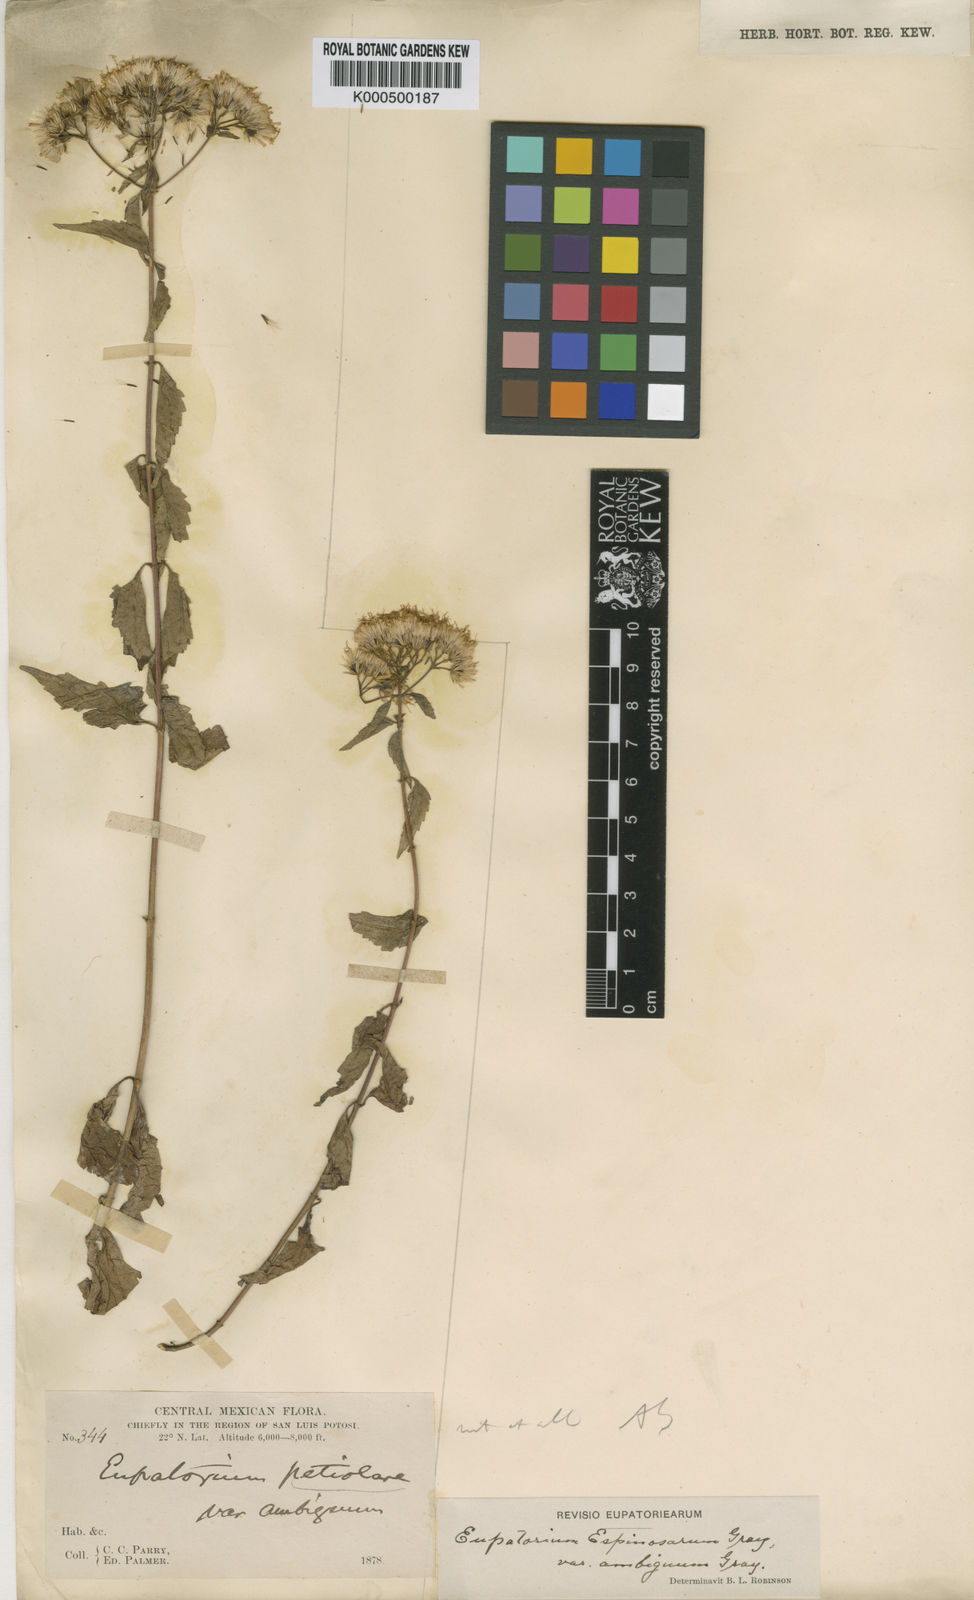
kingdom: Plantae
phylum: Tracheophyta
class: Magnoliopsida
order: Asterales
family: Asteraceae
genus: Ageratina
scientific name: Ageratina espinosarum
